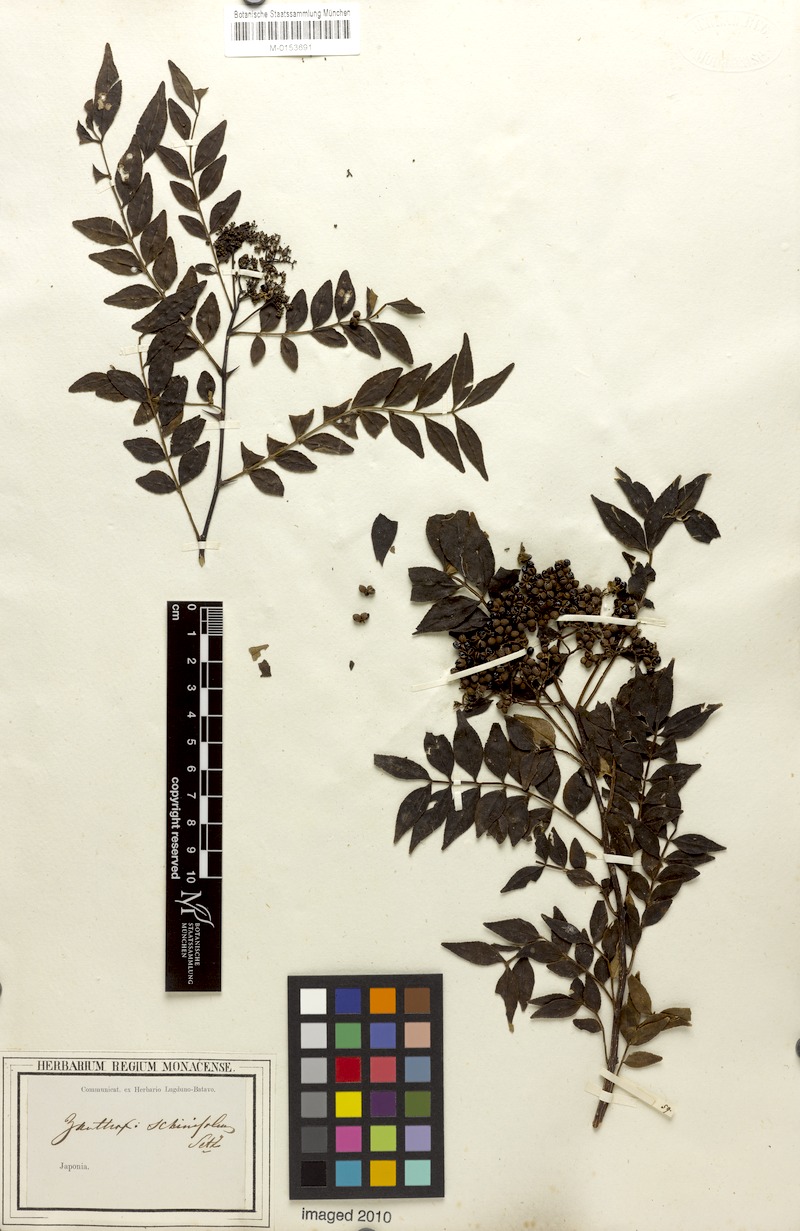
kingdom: Plantae
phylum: Tracheophyta
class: Magnoliopsida
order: Sapindales
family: Rutaceae
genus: Zanthoxylum
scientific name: Zanthoxylum schinifolium
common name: Sichuan-pepper
